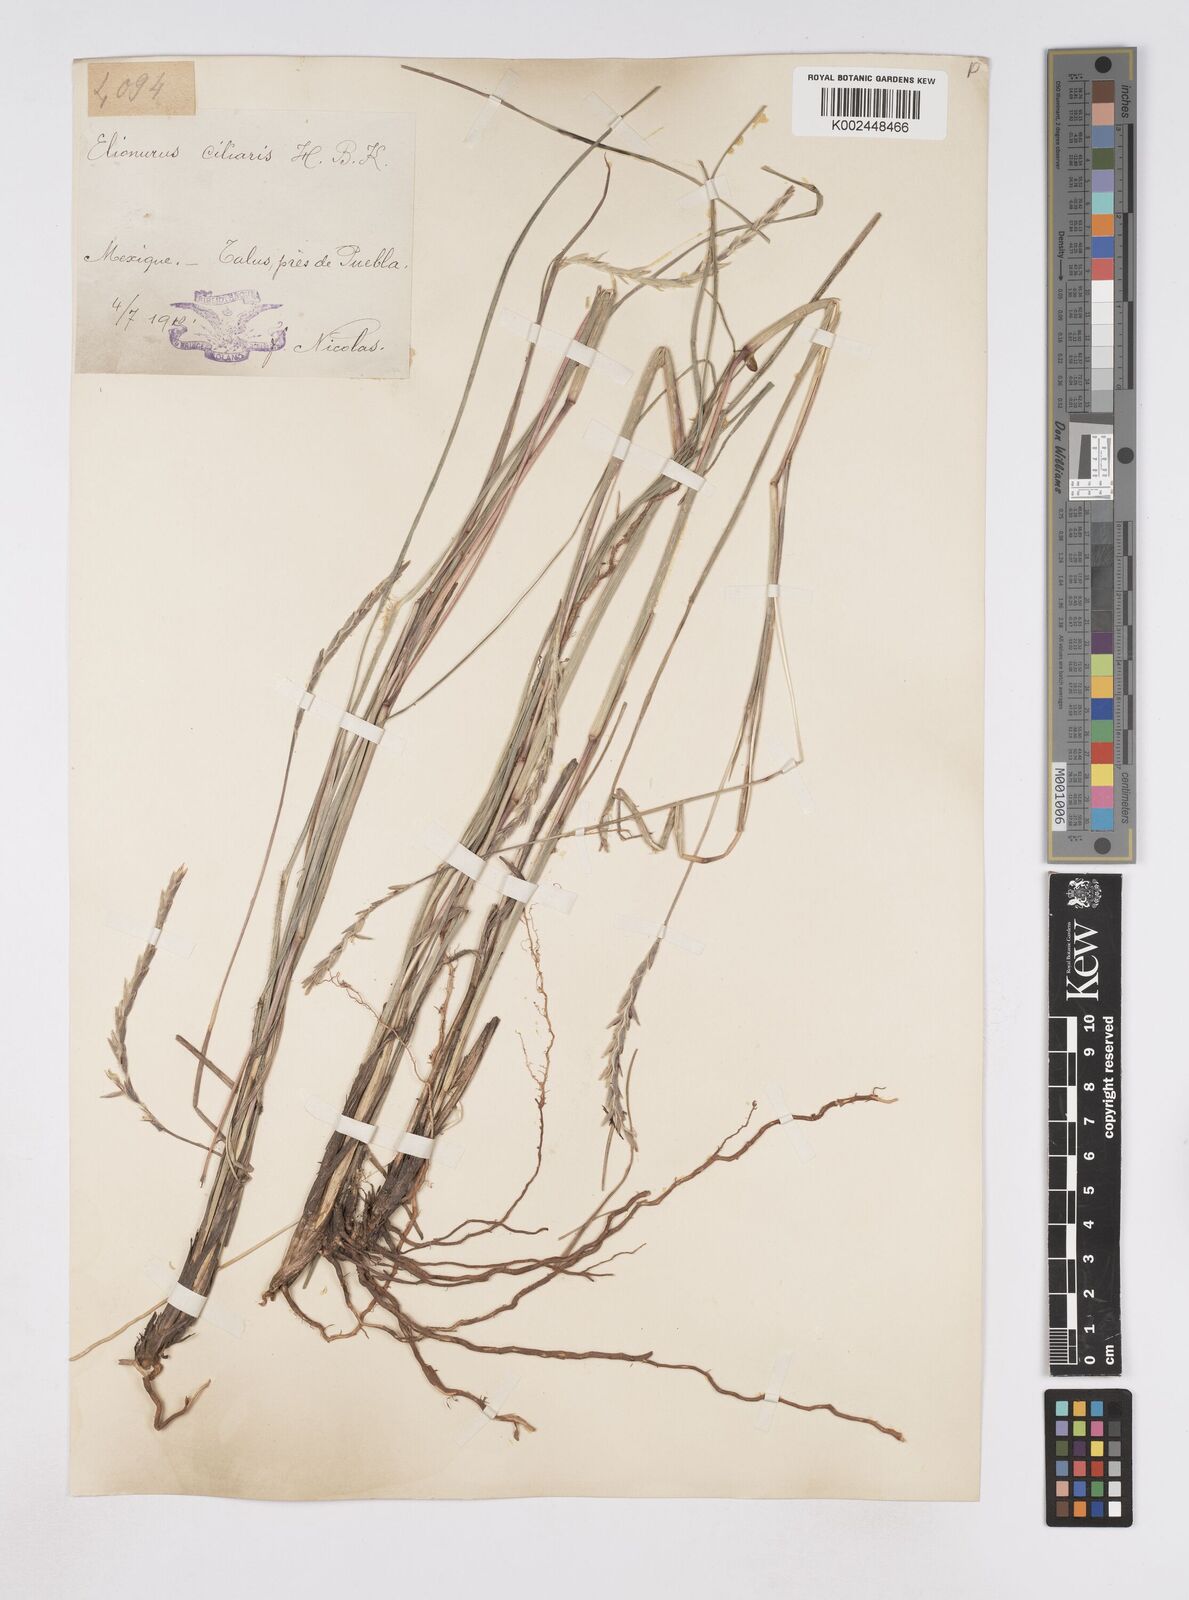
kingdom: Plantae
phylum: Tracheophyta
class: Liliopsida
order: Poales
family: Poaceae
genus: Elionurus
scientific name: Elionurus ciliaris
